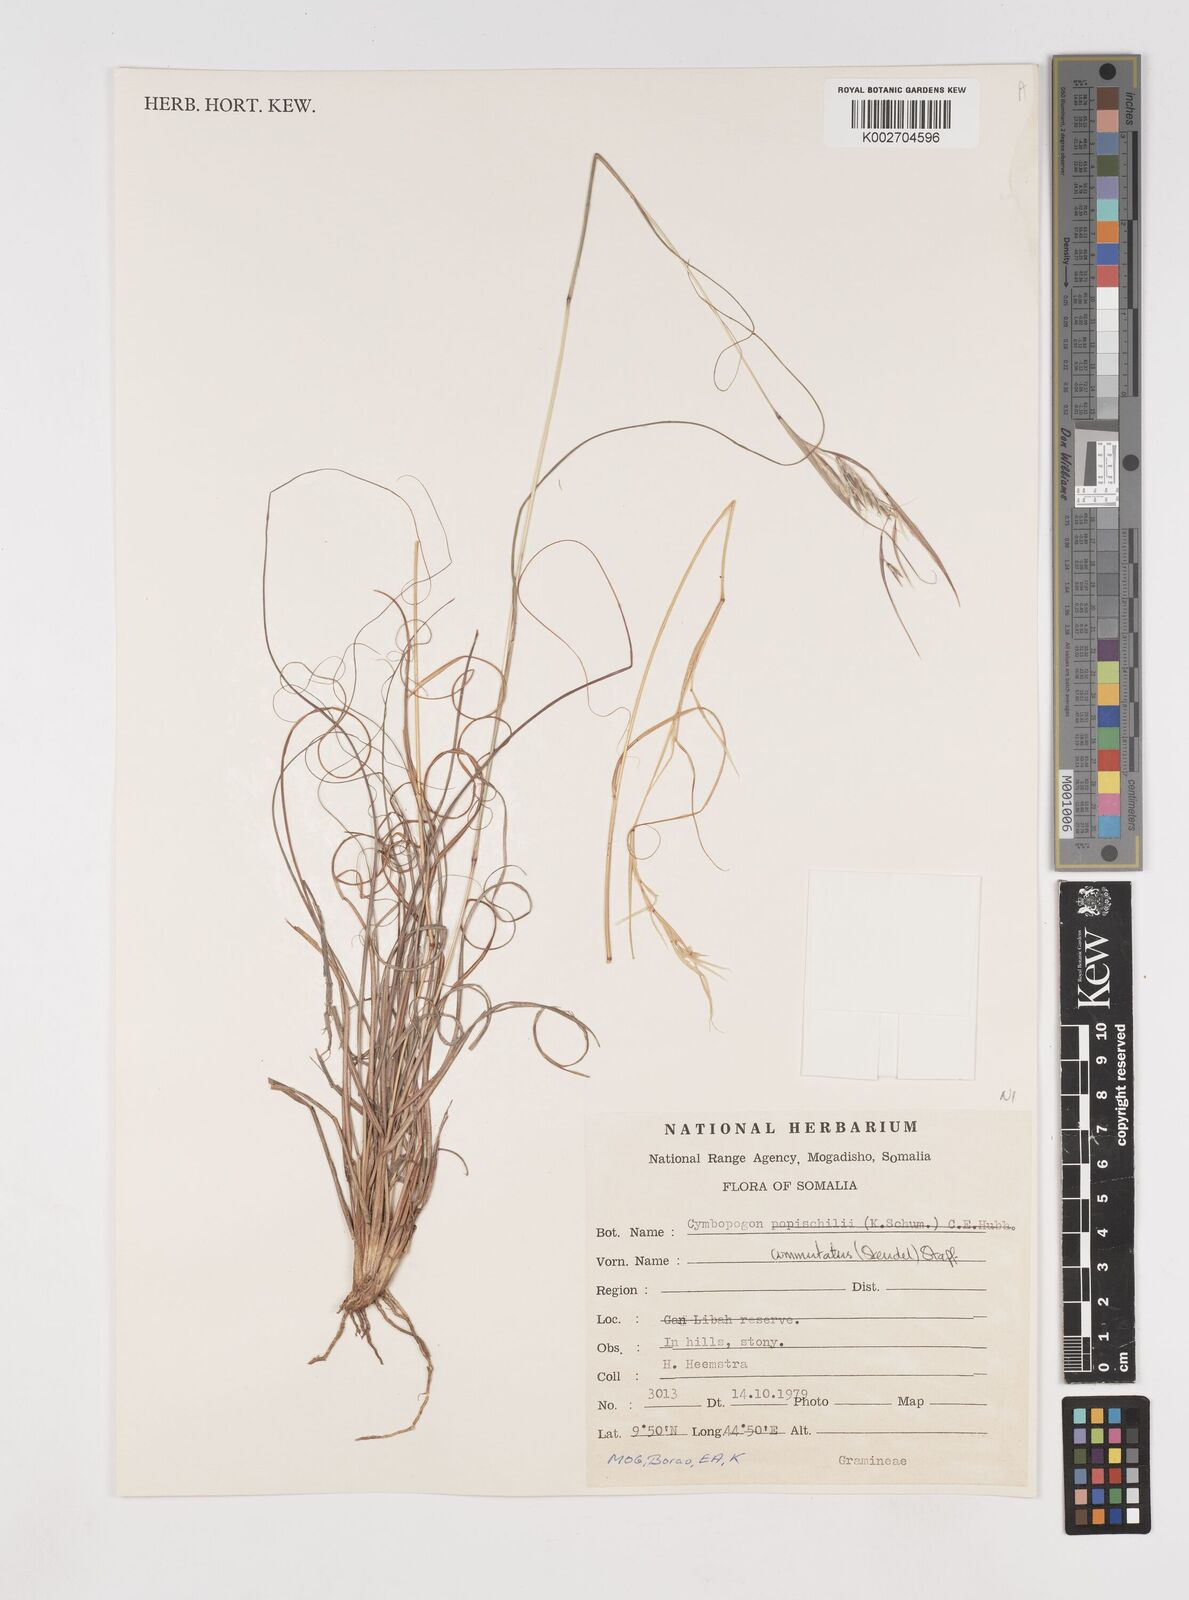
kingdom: Plantae
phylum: Tracheophyta
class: Liliopsida
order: Poales
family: Poaceae
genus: Cymbopogon
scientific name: Cymbopogon commutatus
